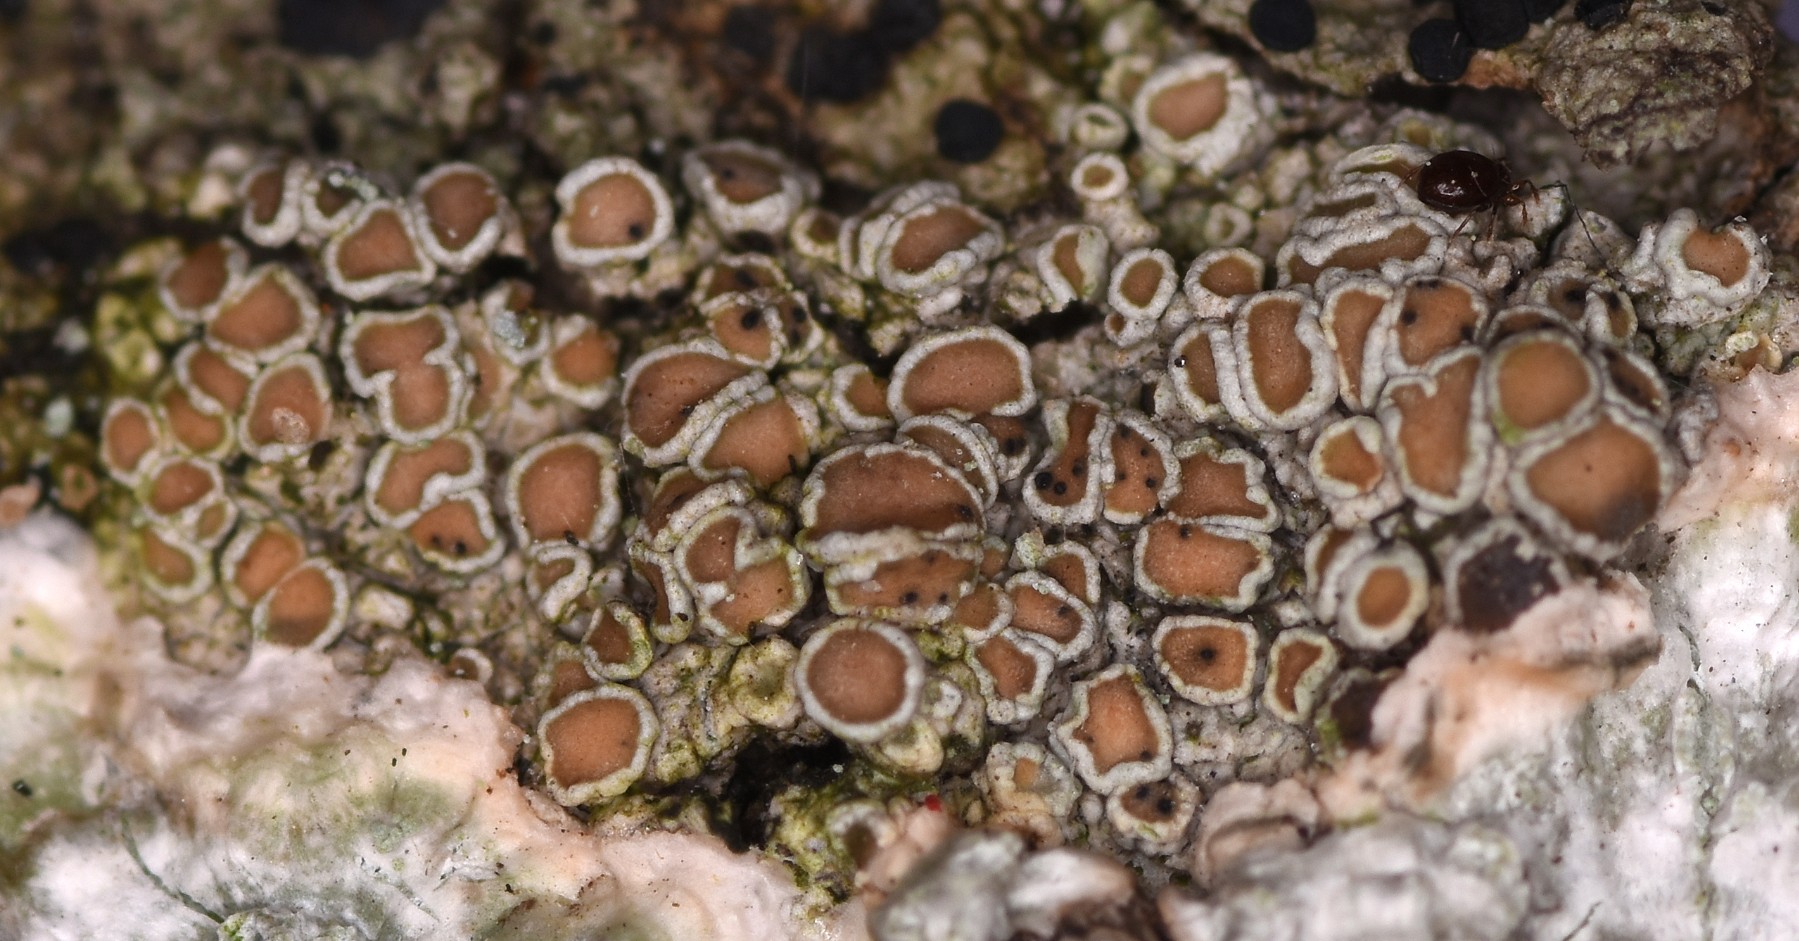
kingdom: Fungi
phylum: Ascomycota
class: Lecanoromycetes
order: Lecanorales
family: Lecanoraceae
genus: Lecanora
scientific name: Lecanora chlarotera
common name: brun kantskivelav
